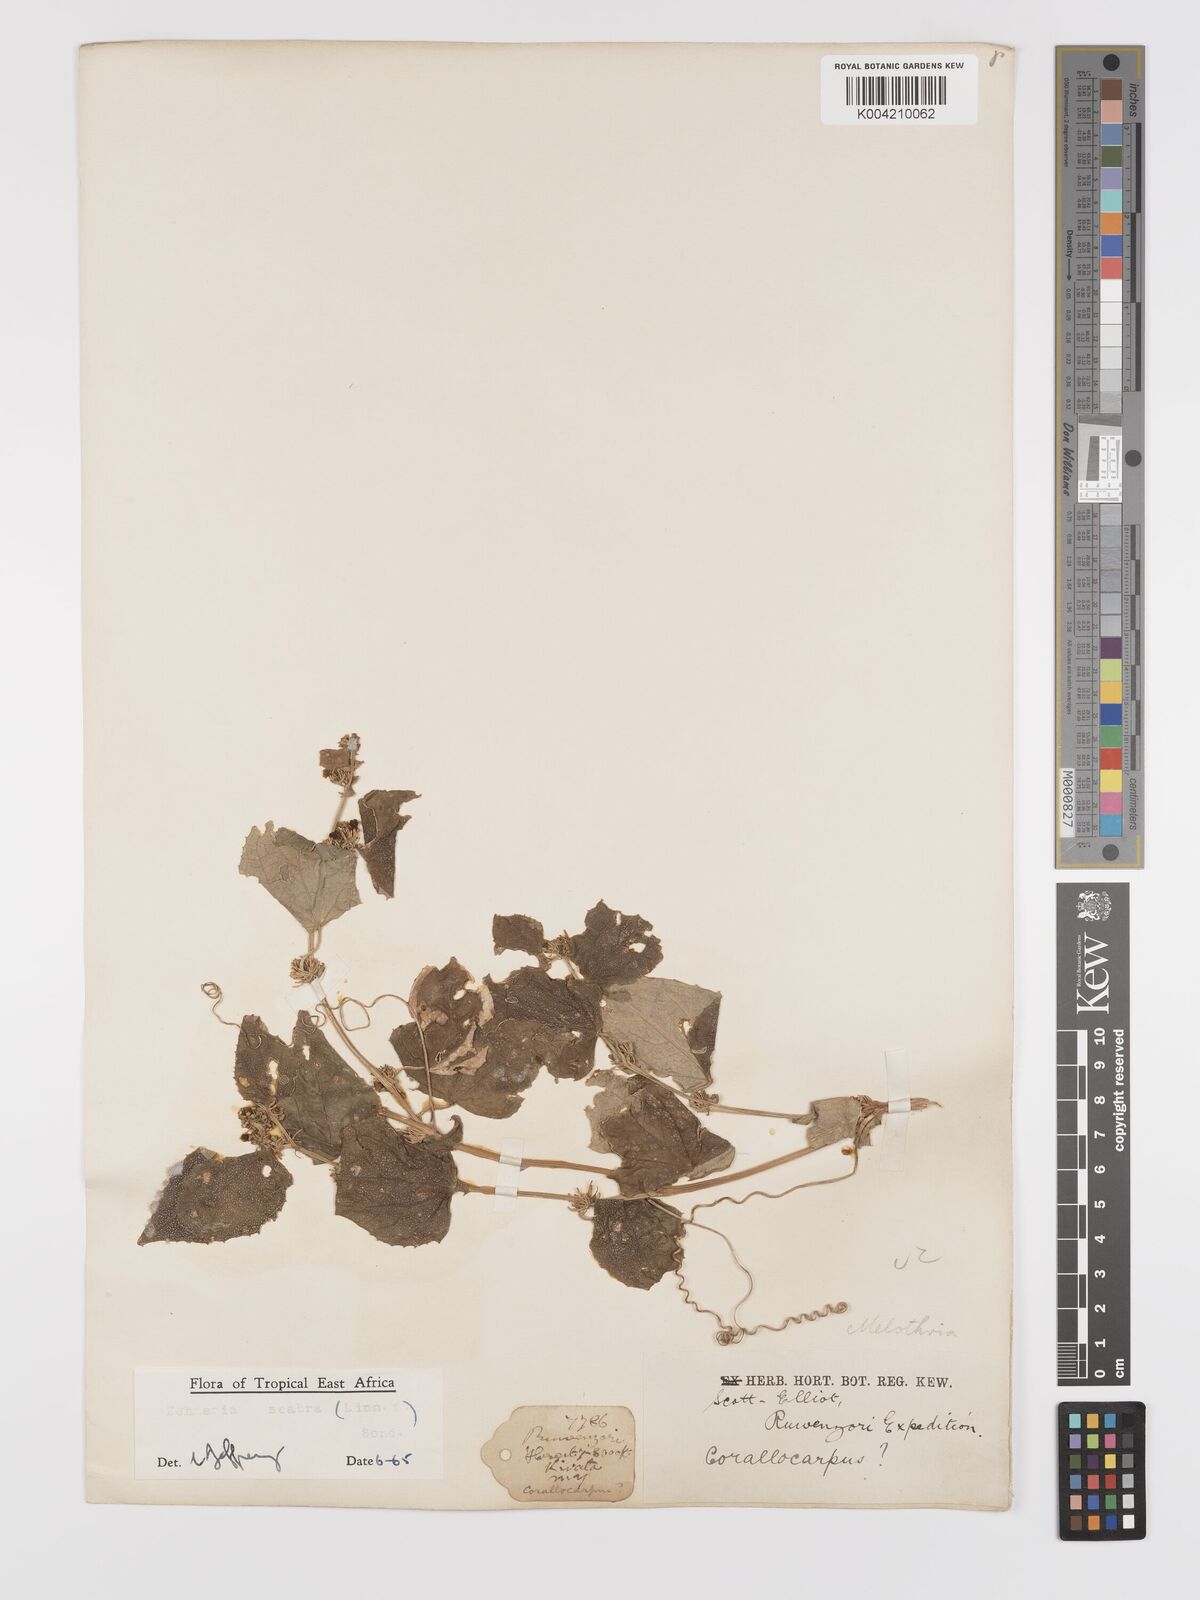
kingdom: Plantae
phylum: Tracheophyta
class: Magnoliopsida
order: Cucurbitales
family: Cucurbitaceae
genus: Zehneria
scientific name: Zehneria scabra
